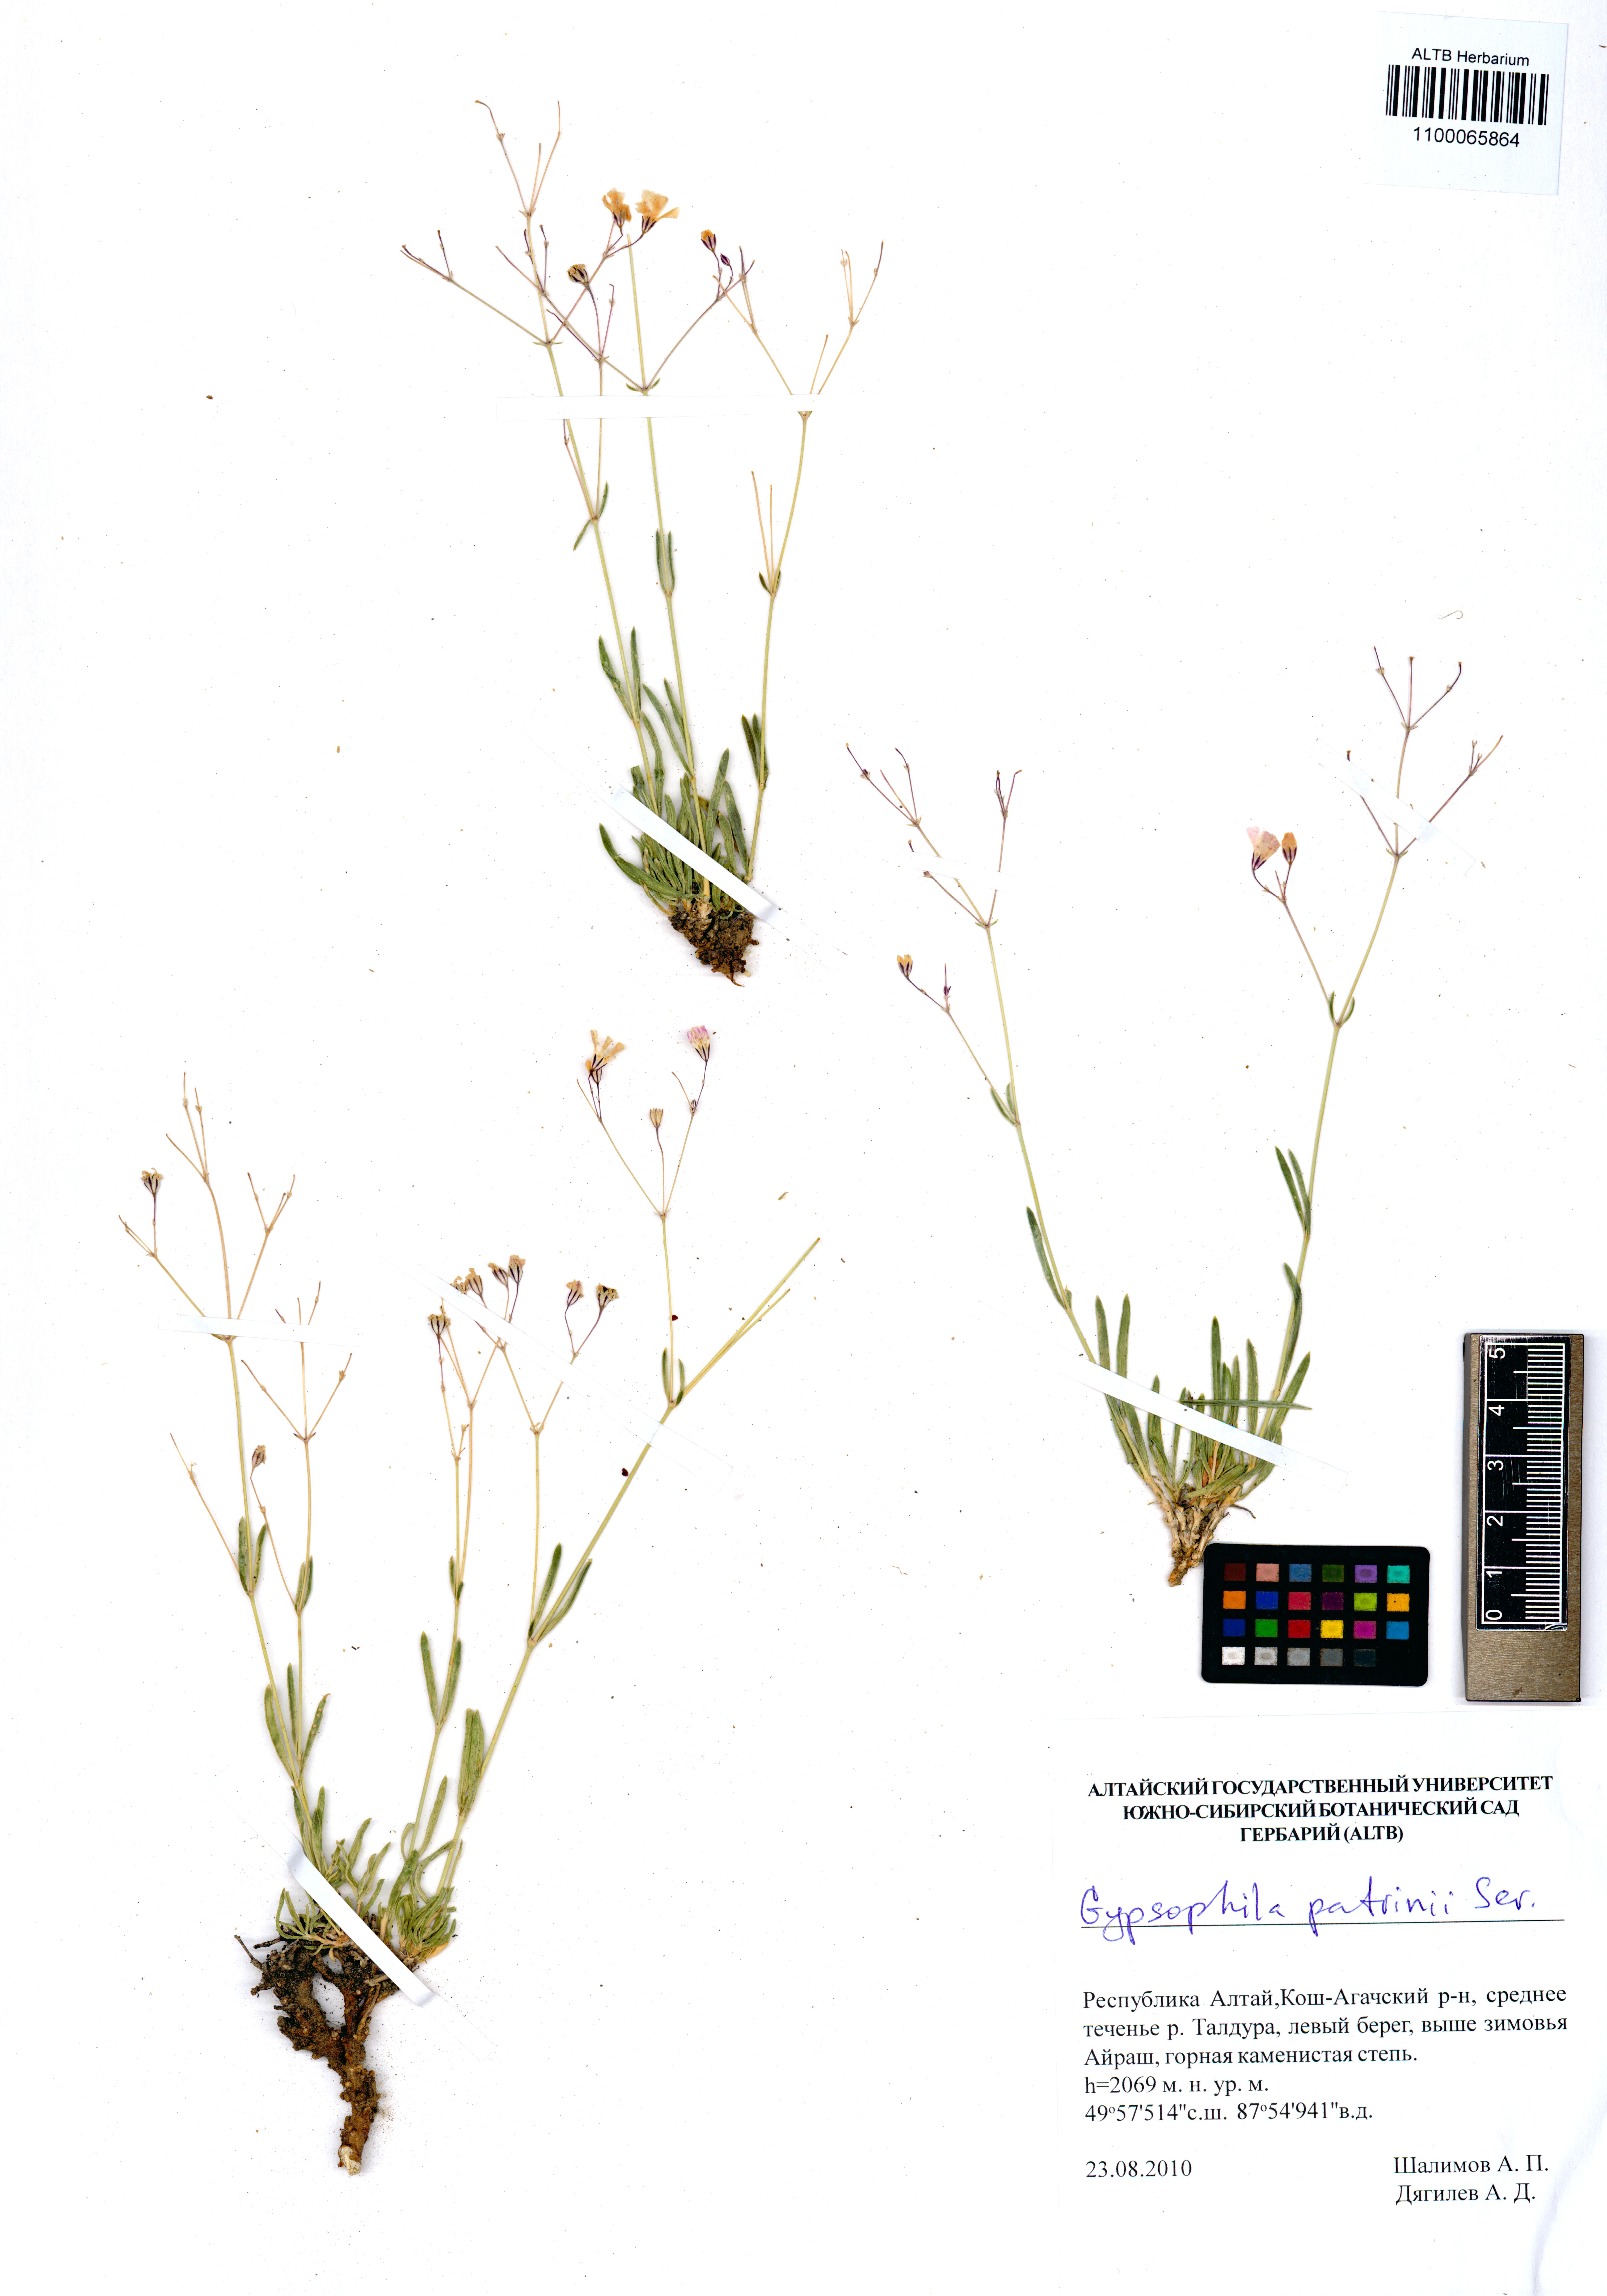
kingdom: Plantae
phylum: Tracheophyta
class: Magnoliopsida
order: Caryophyllales
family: Caryophyllaceae
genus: Gypsophila
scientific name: Gypsophila patrinii
